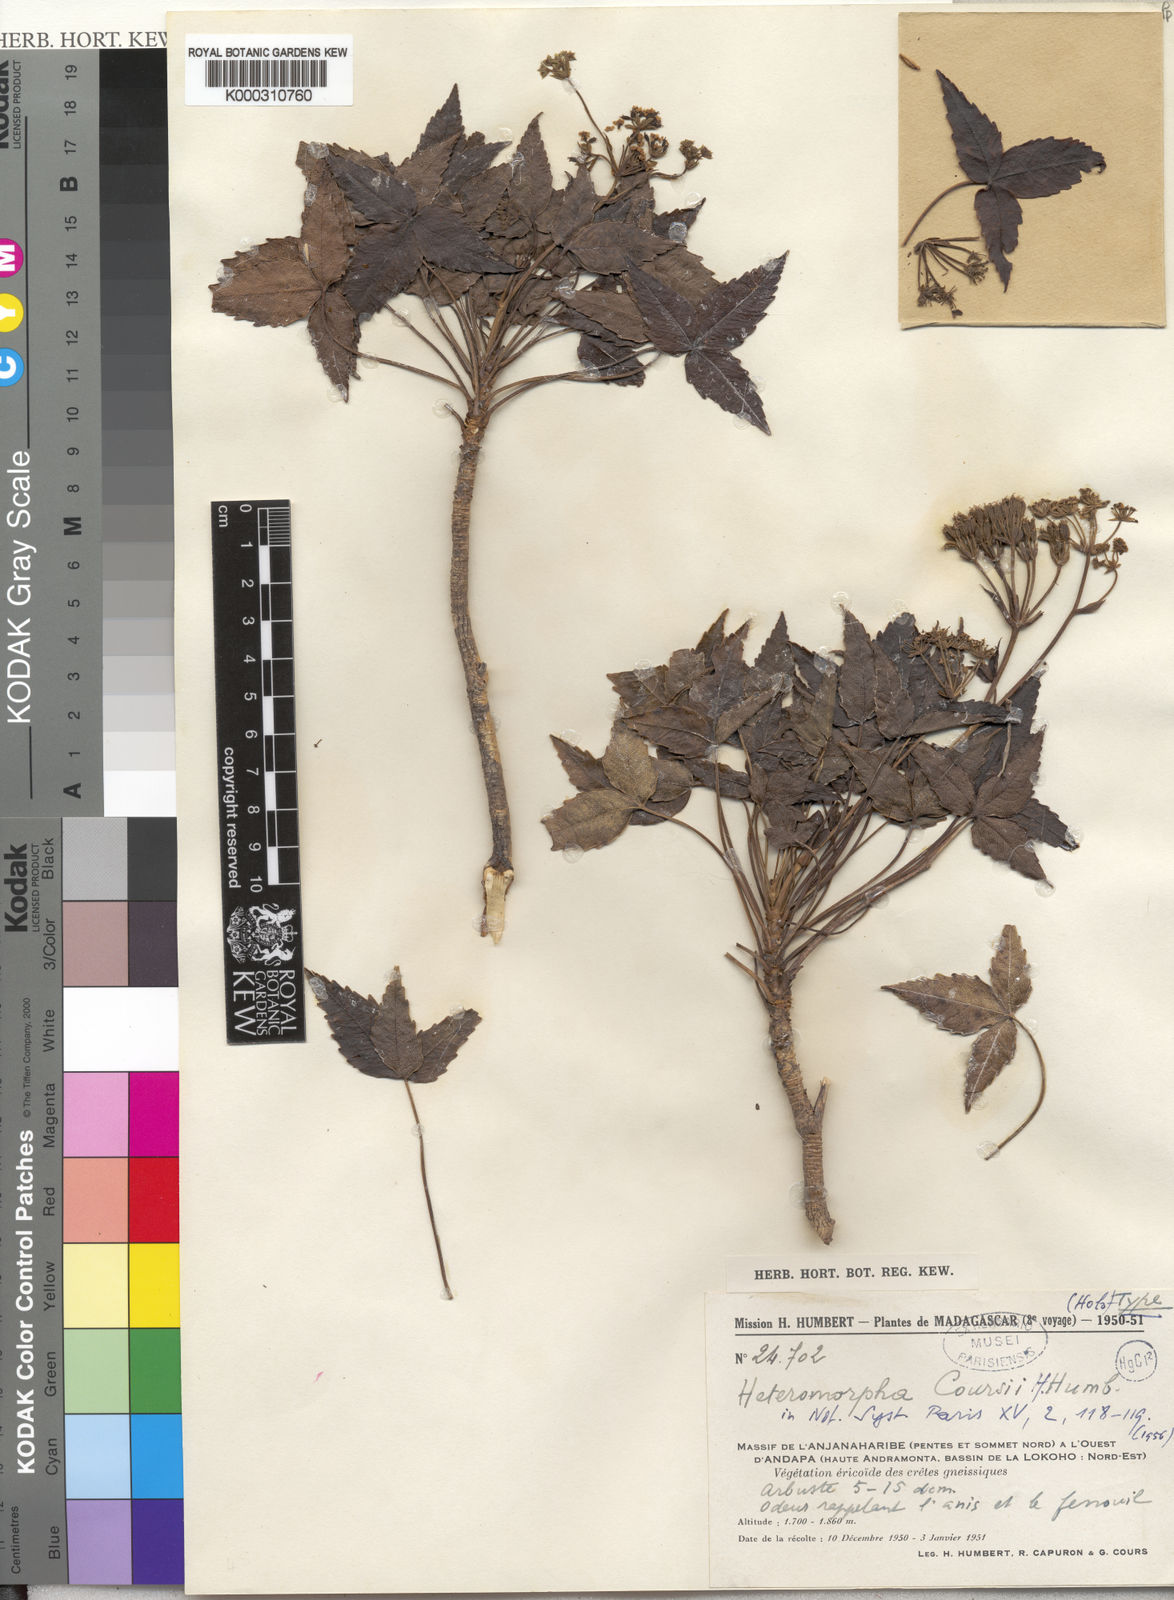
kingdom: Plantae
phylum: Tracheophyta
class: Magnoliopsida
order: Apiales
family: Apiaceae
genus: Andriana
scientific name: Andriana coursii
